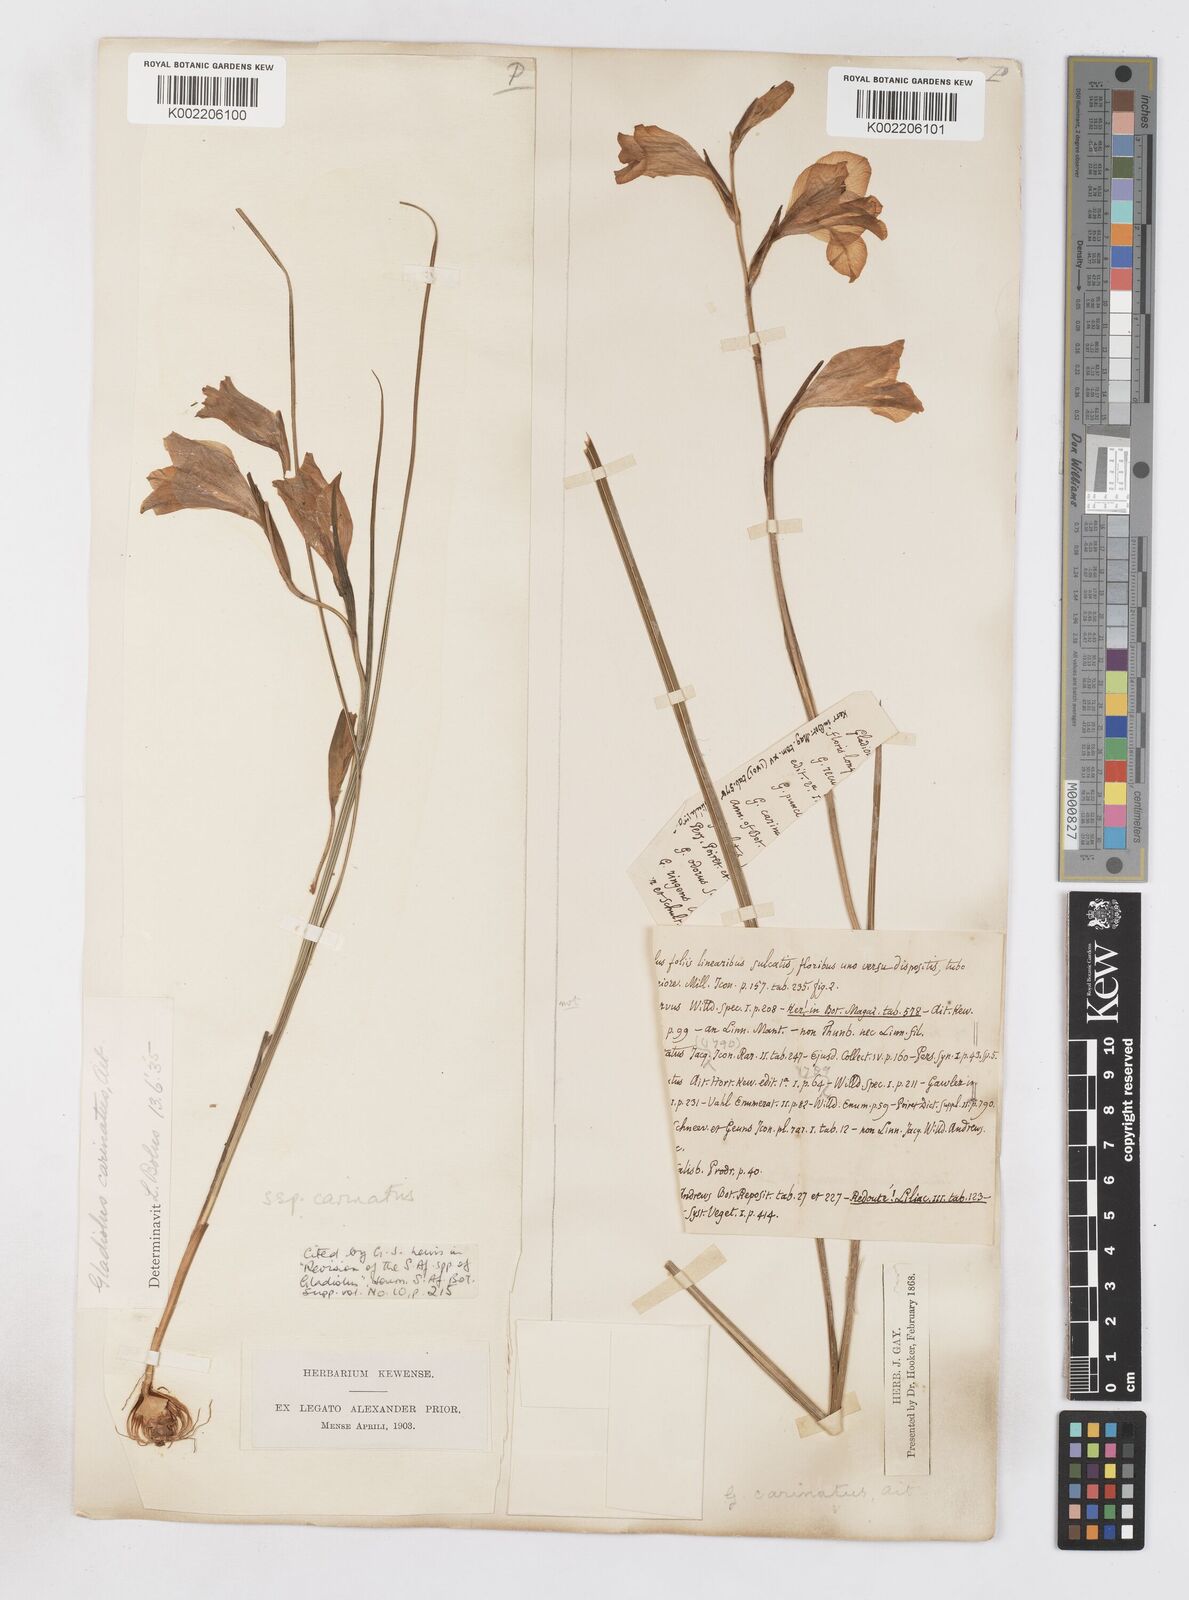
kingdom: Plantae
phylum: Tracheophyta
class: Liliopsida
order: Asparagales
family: Iridaceae
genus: Gladiolus
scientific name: Gladiolus carinatus
